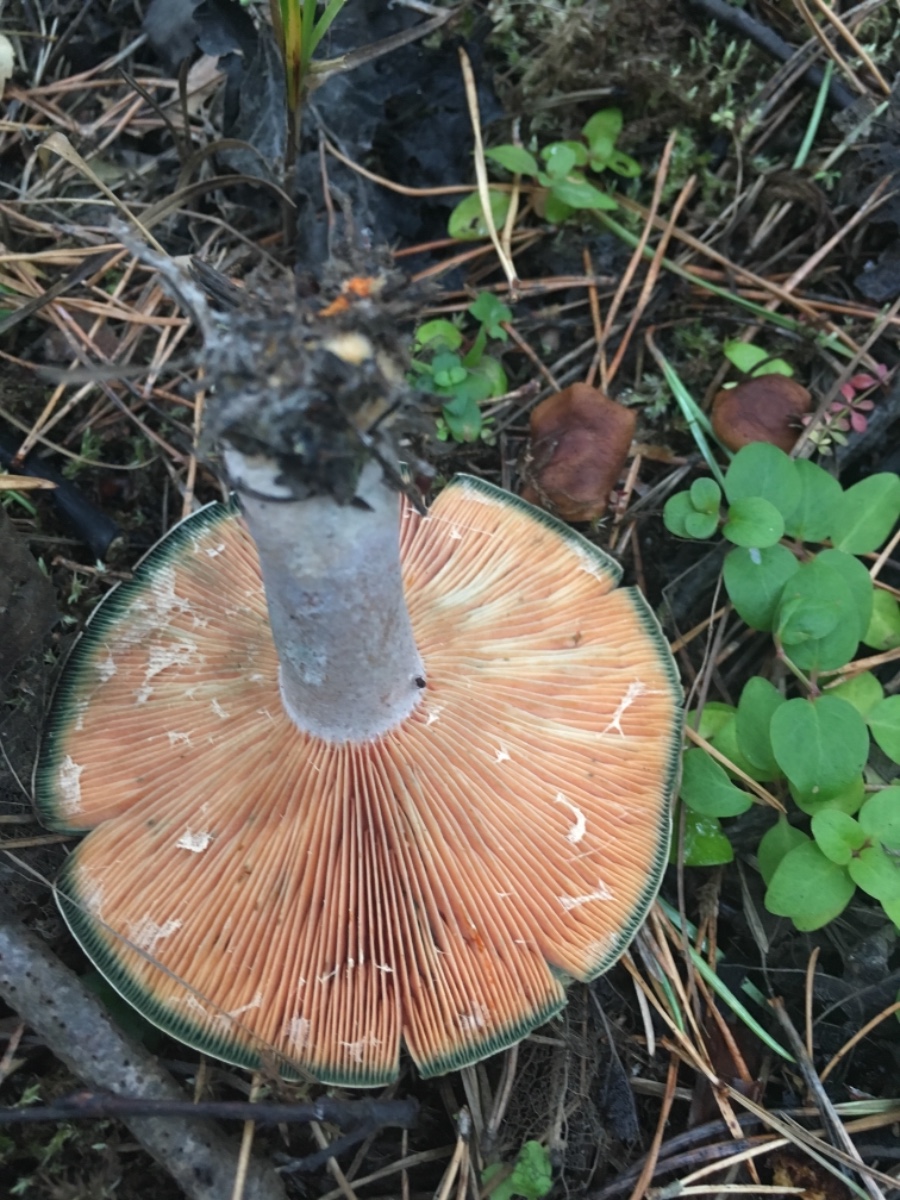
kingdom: Fungi
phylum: Basidiomycota
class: Agaricomycetes
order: Russulales
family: Russulaceae
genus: Lactarius
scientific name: Lactarius quieticolor
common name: tvefarvet mælkehat
